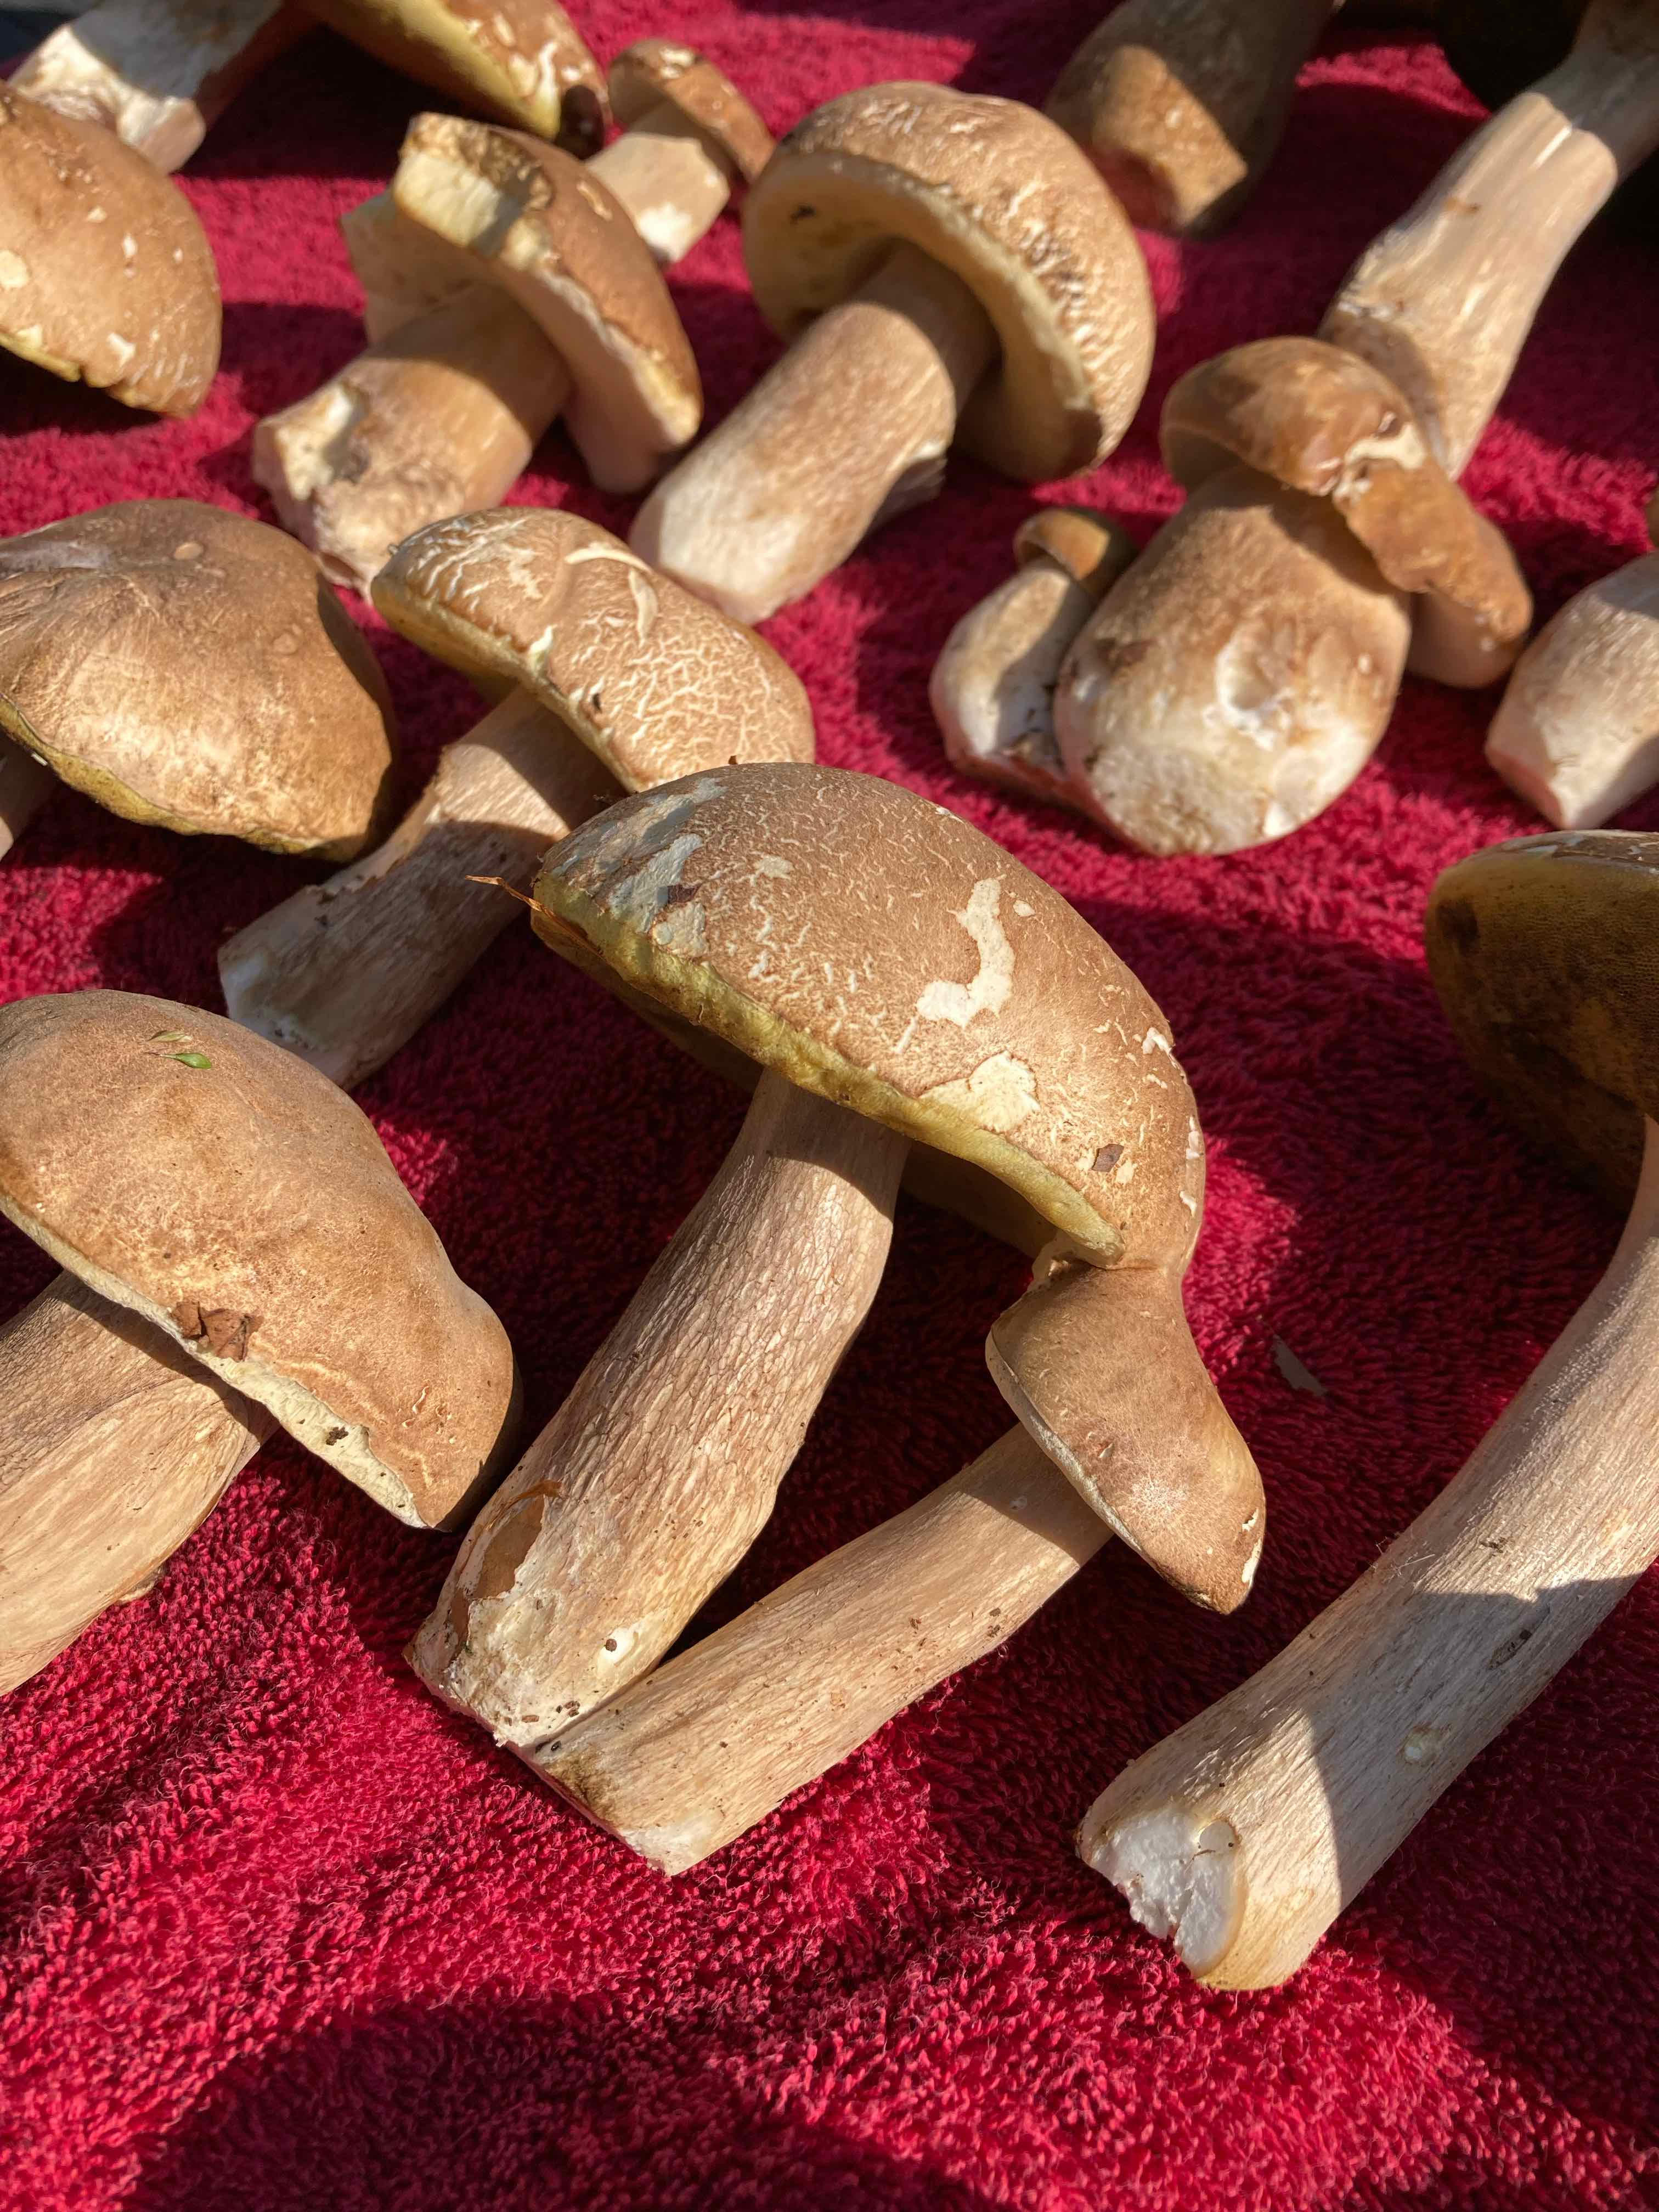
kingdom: Fungi
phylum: Basidiomycota
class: Agaricomycetes
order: Boletales
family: Boletaceae
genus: Boletus
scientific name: Boletus reticulatus
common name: sommer-rørhat
